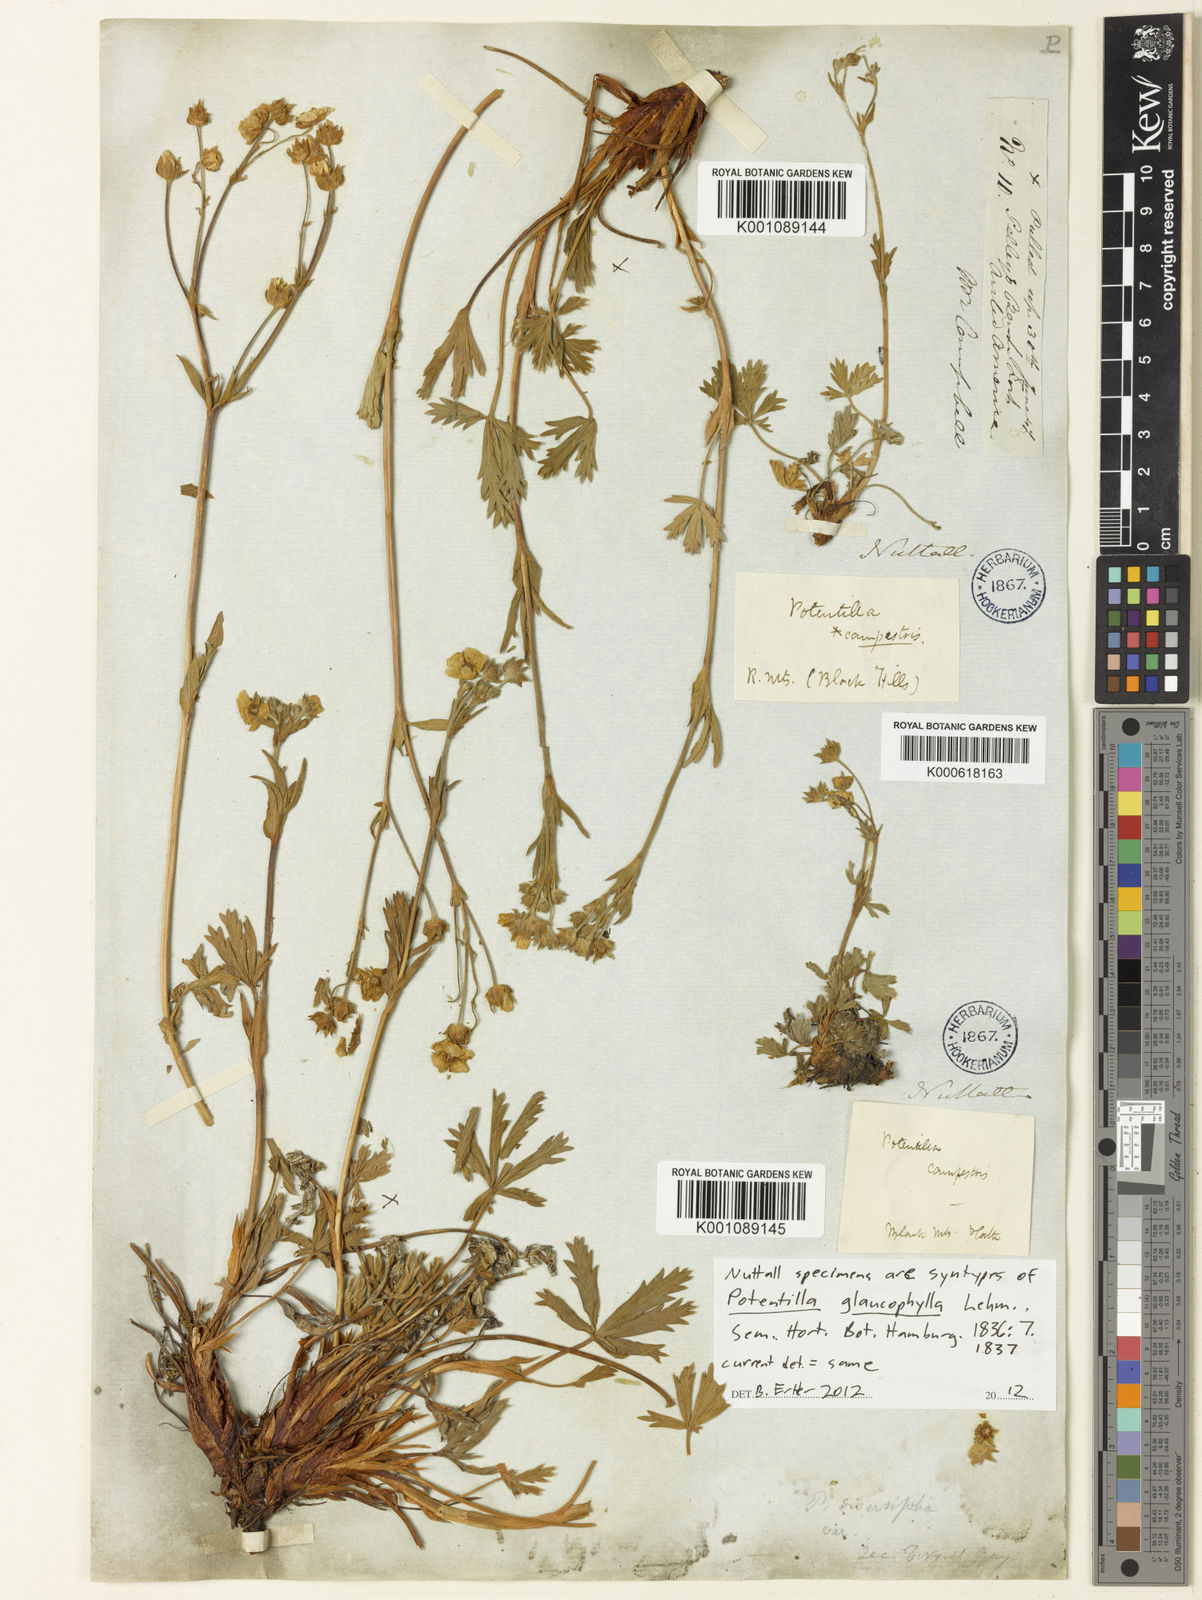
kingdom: Plantae
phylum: Tracheophyta
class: Magnoliopsida
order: Rosales
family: Rosaceae
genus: Potentilla
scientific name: Potentilla glaucophylla
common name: Blue-leaved cinquefoil
